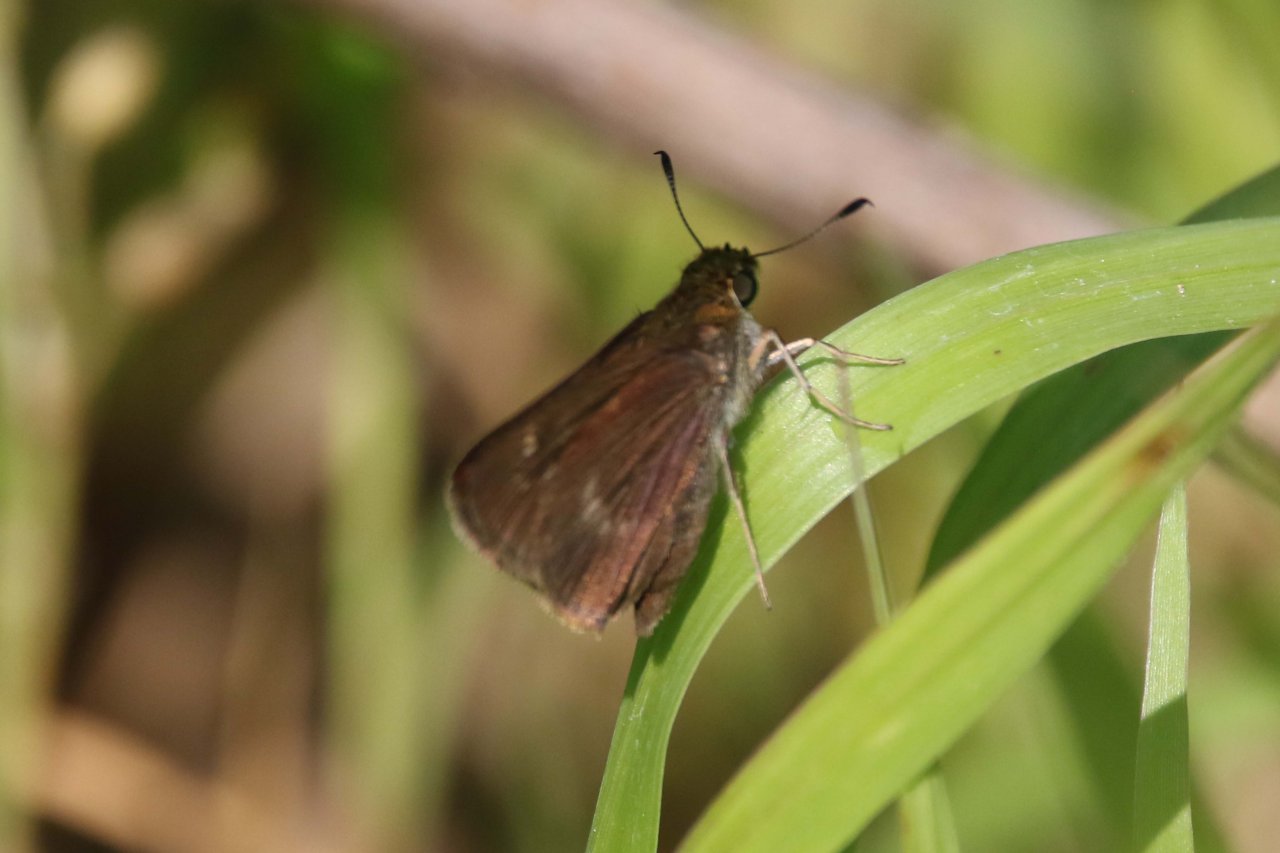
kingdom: Animalia
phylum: Arthropoda
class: Insecta
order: Lepidoptera
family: Hesperiidae
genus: Euphyes
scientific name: Euphyes
